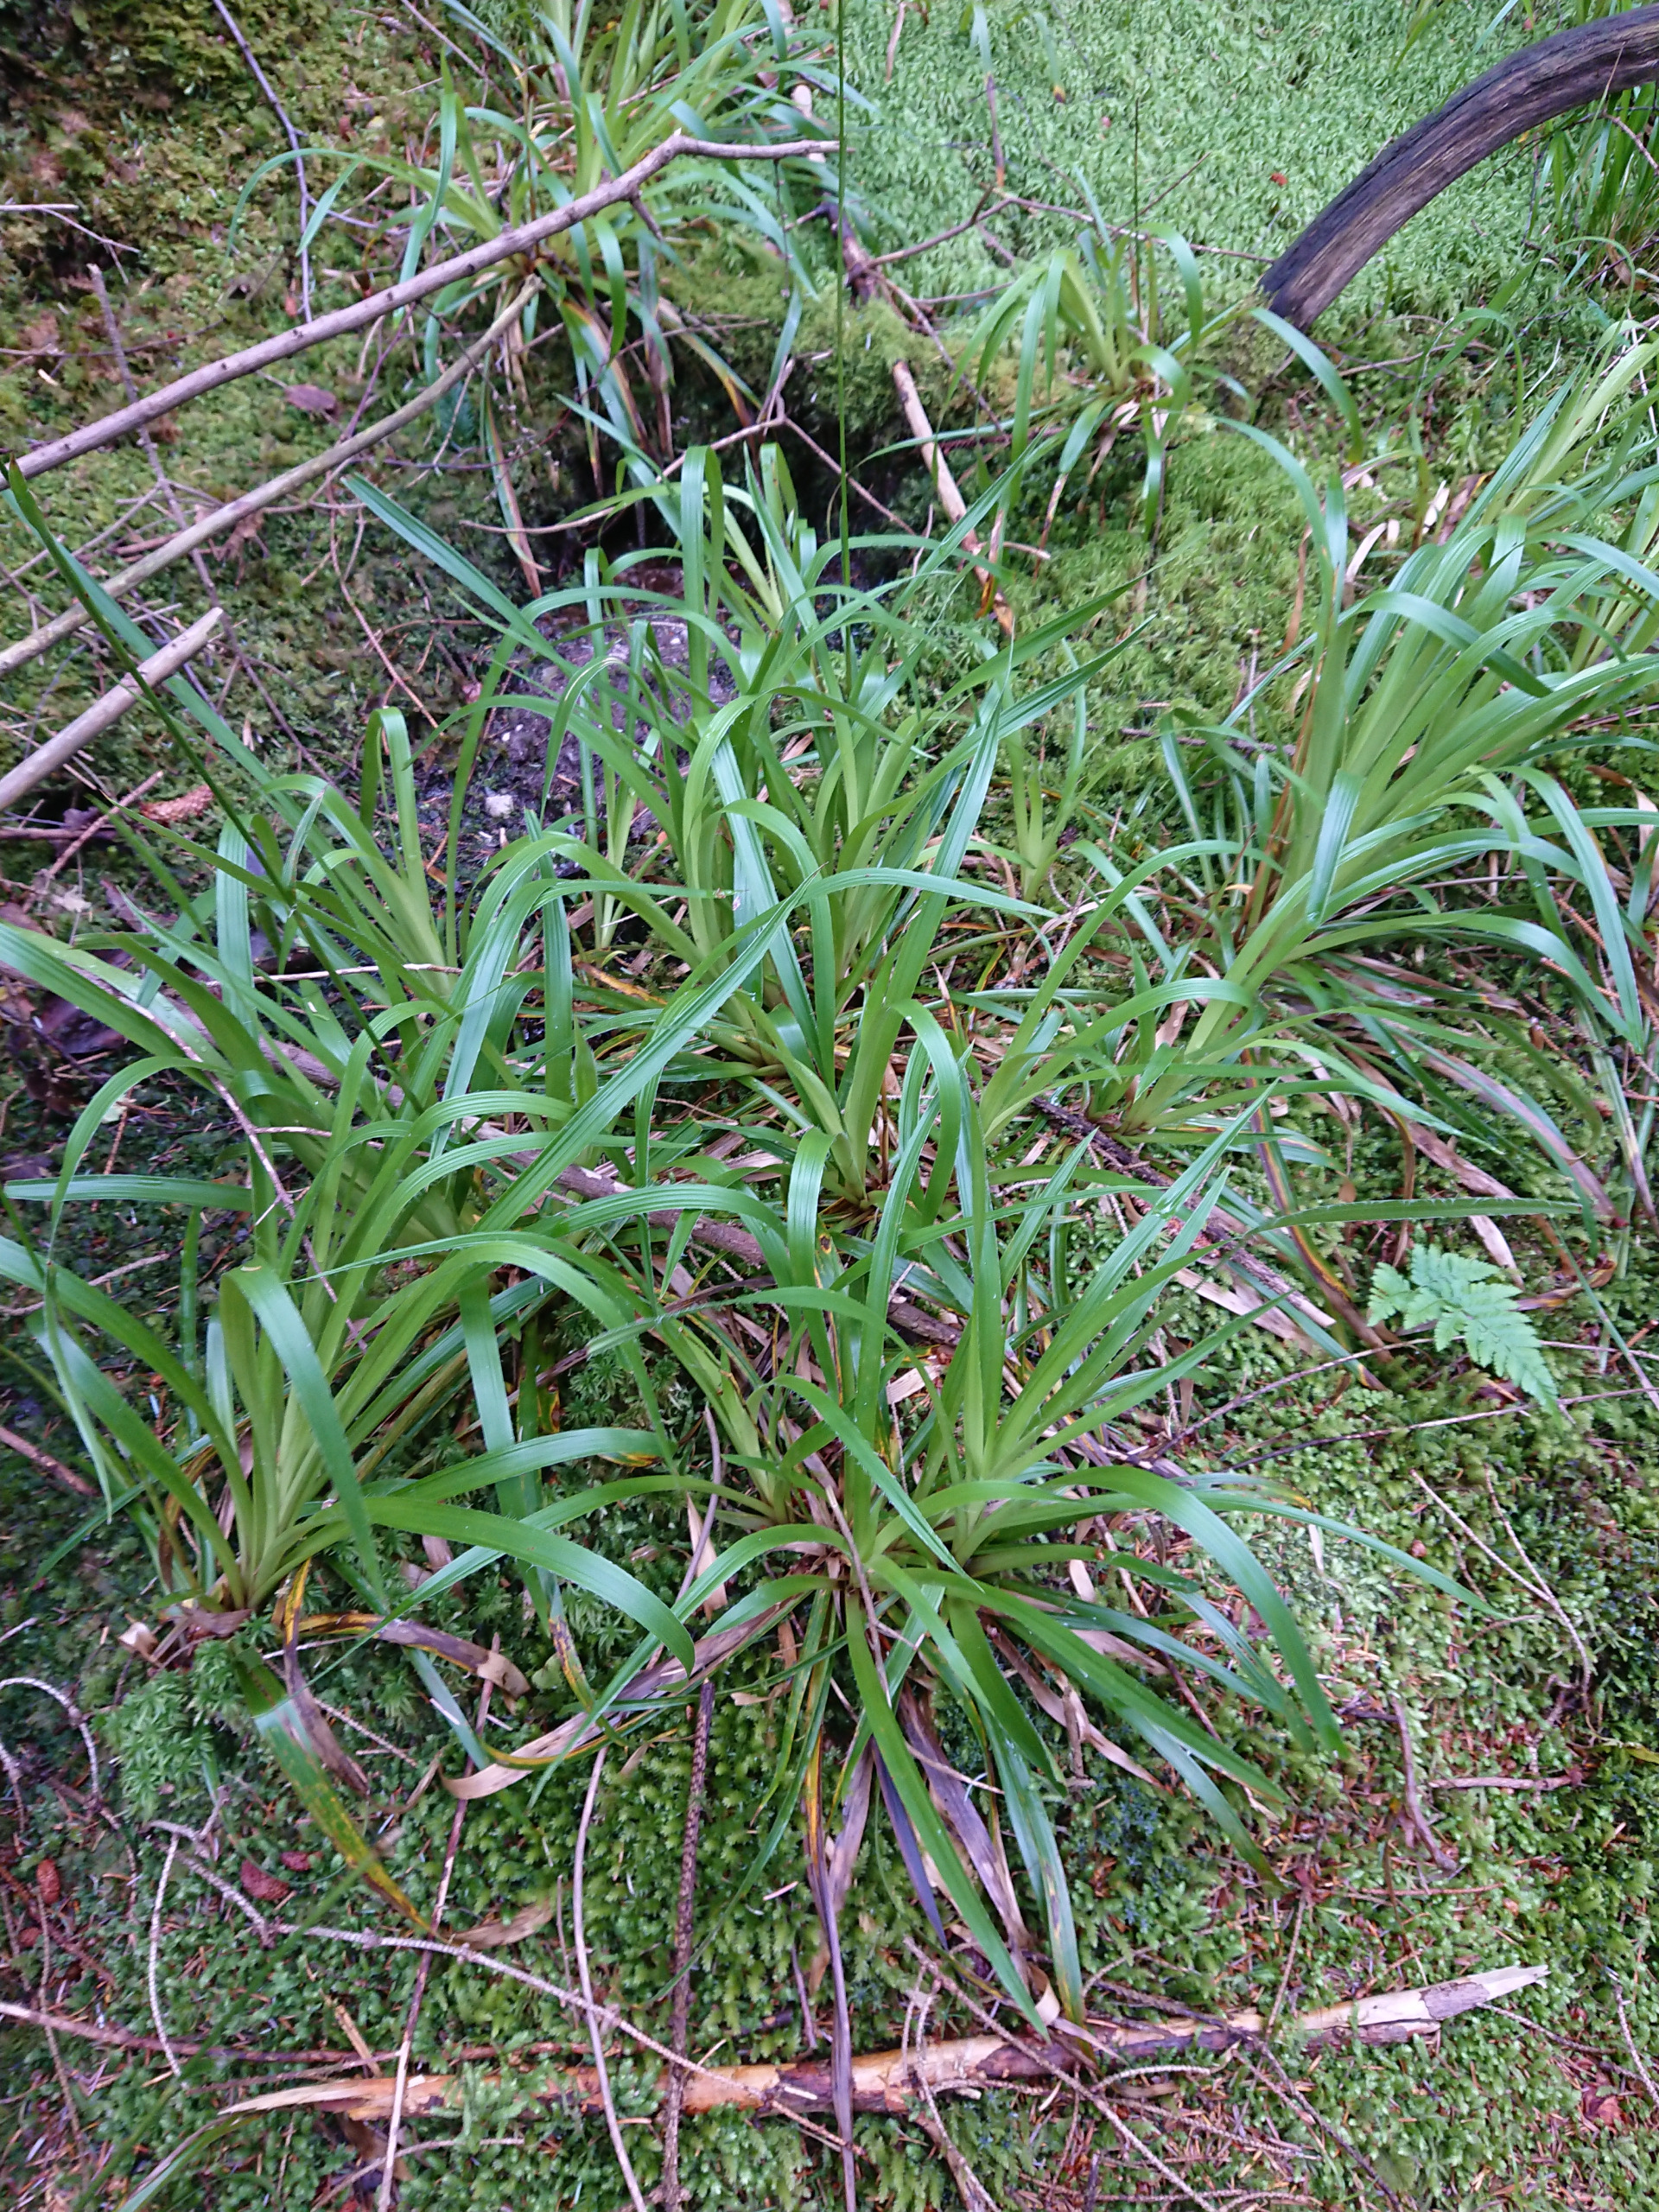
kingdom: Plantae
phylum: Tracheophyta
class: Liliopsida
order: Poales
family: Juncaceae
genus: Luzula
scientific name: Luzula sylvatica
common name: Stor frytle
